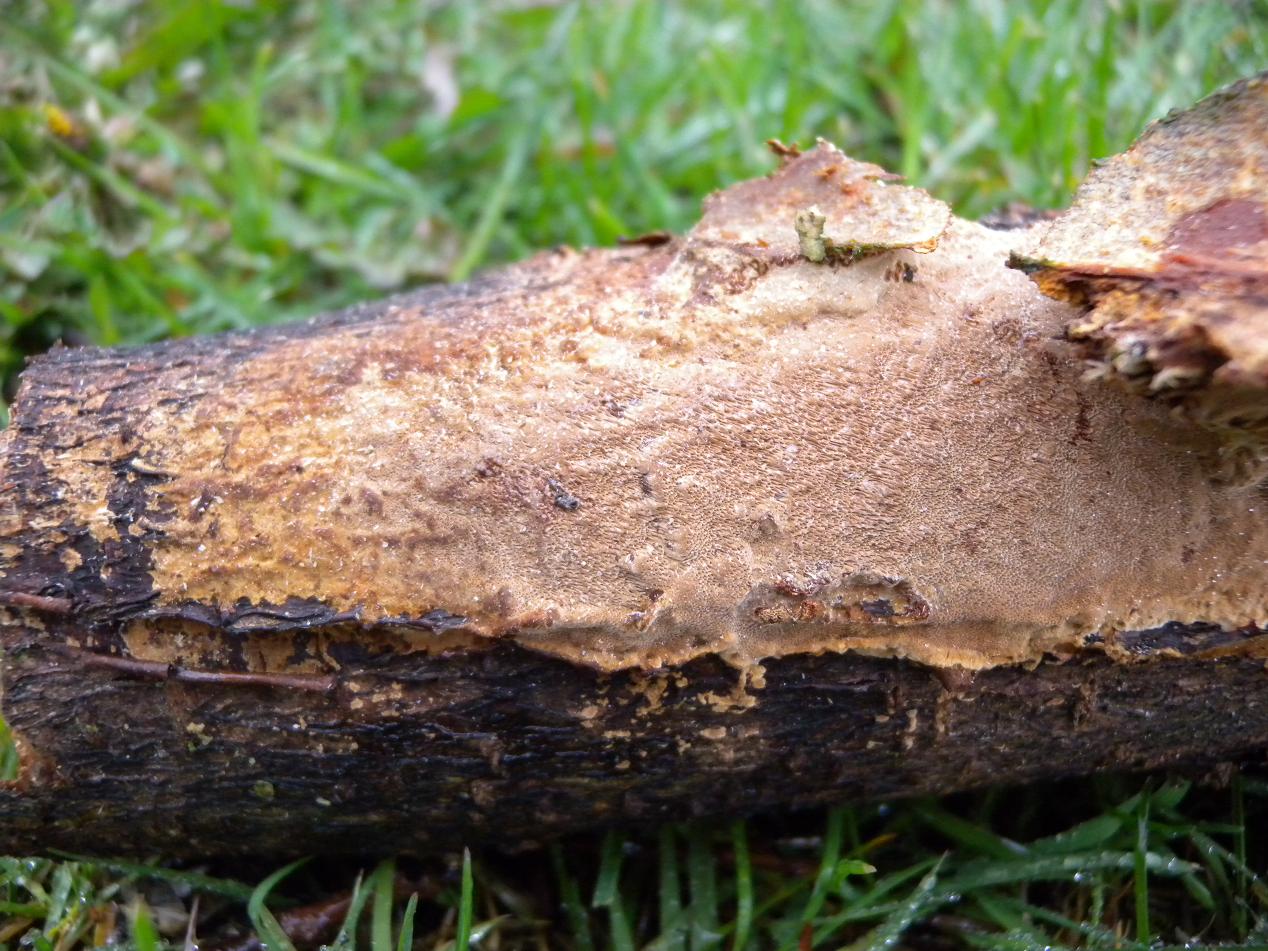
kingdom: Fungi
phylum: Basidiomycota
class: Agaricomycetes
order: Hymenochaetales
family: Hymenochaetaceae
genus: Fuscoporia
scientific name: Fuscoporia ferrea
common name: skorpe-ildporesvamp
